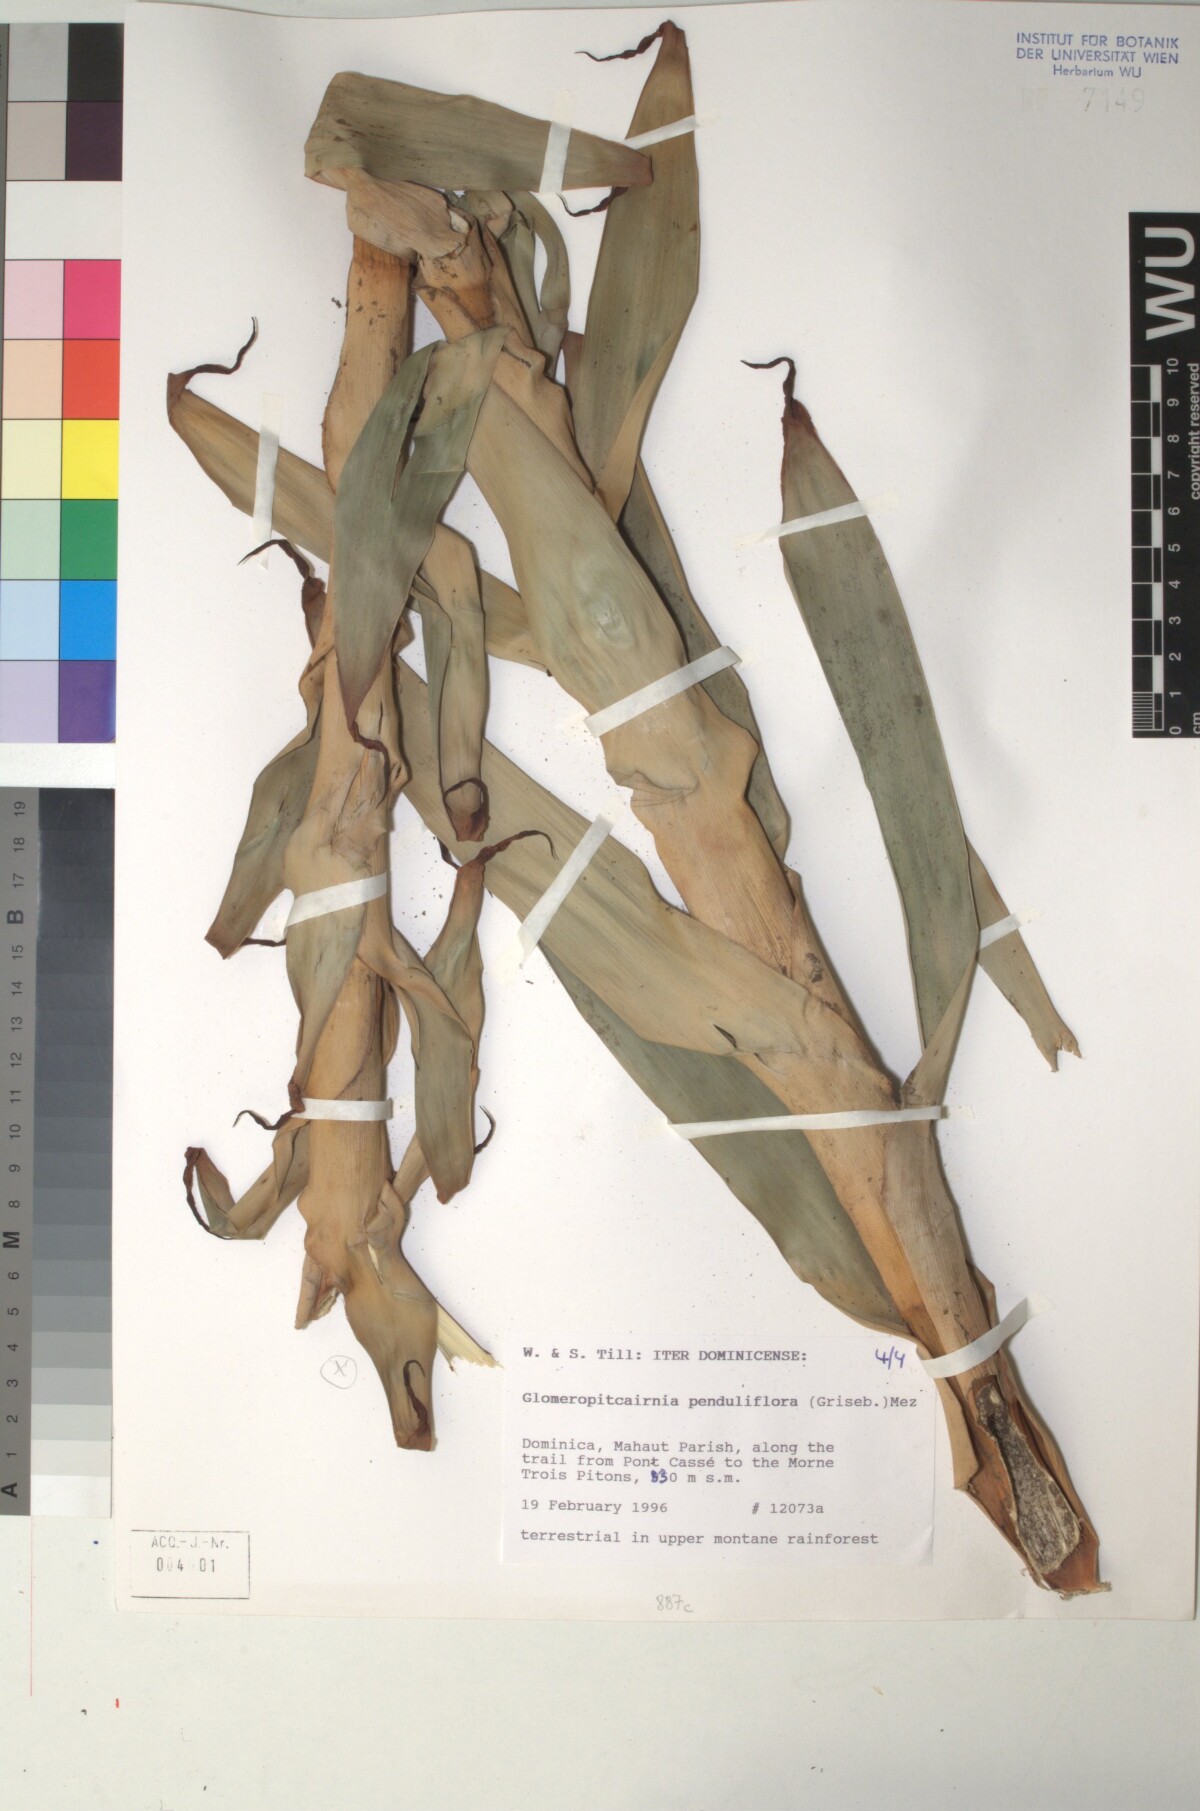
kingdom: Plantae
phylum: Tracheophyta
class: Liliopsida
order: Poales
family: Bromeliaceae
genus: Glomeropitcairnia
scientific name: Glomeropitcairnia penduliflora
